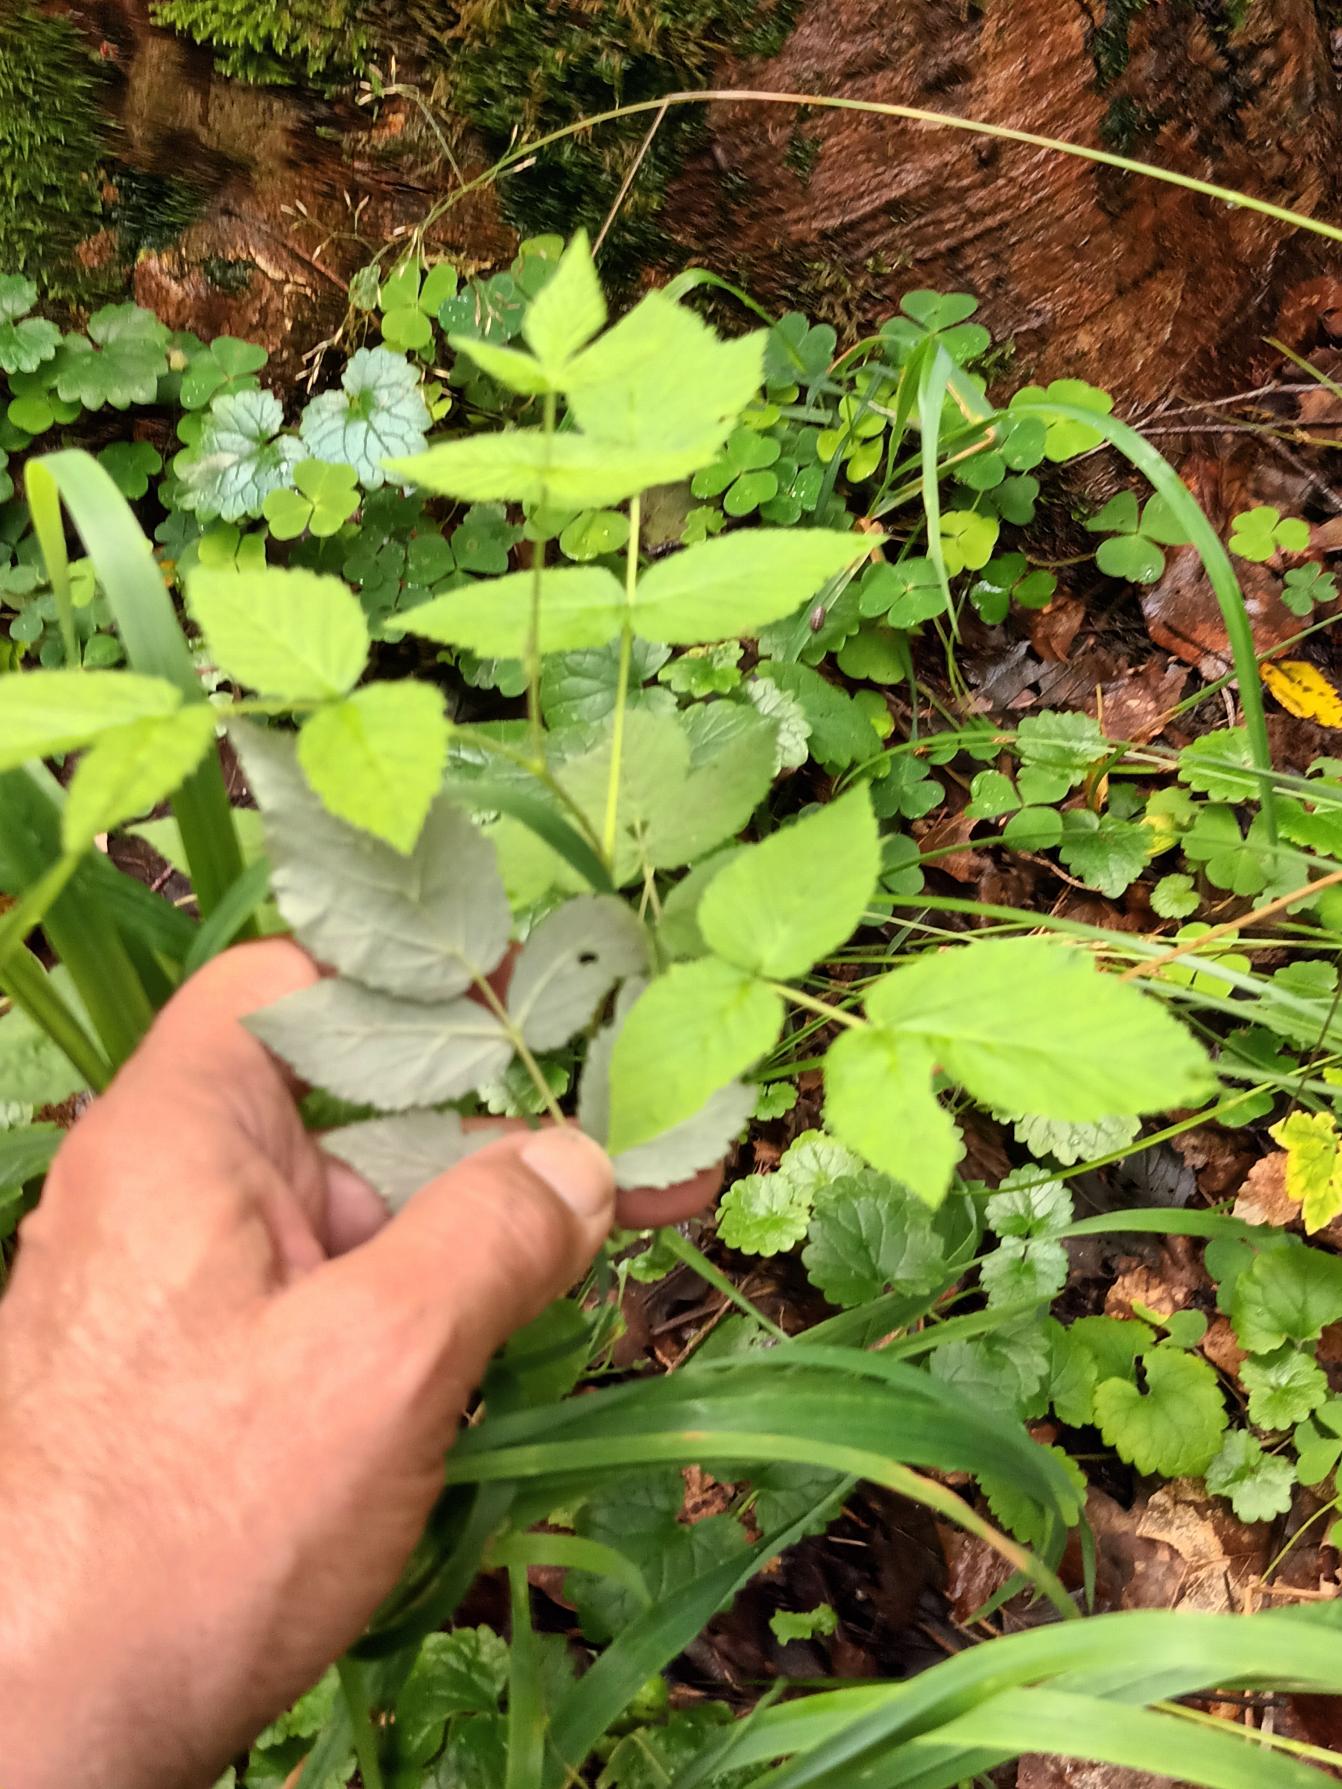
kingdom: Plantae
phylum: Tracheophyta
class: Magnoliopsida
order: Rosales
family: Rosaceae
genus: Rubus
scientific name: Rubus idaeus
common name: Hindbær
